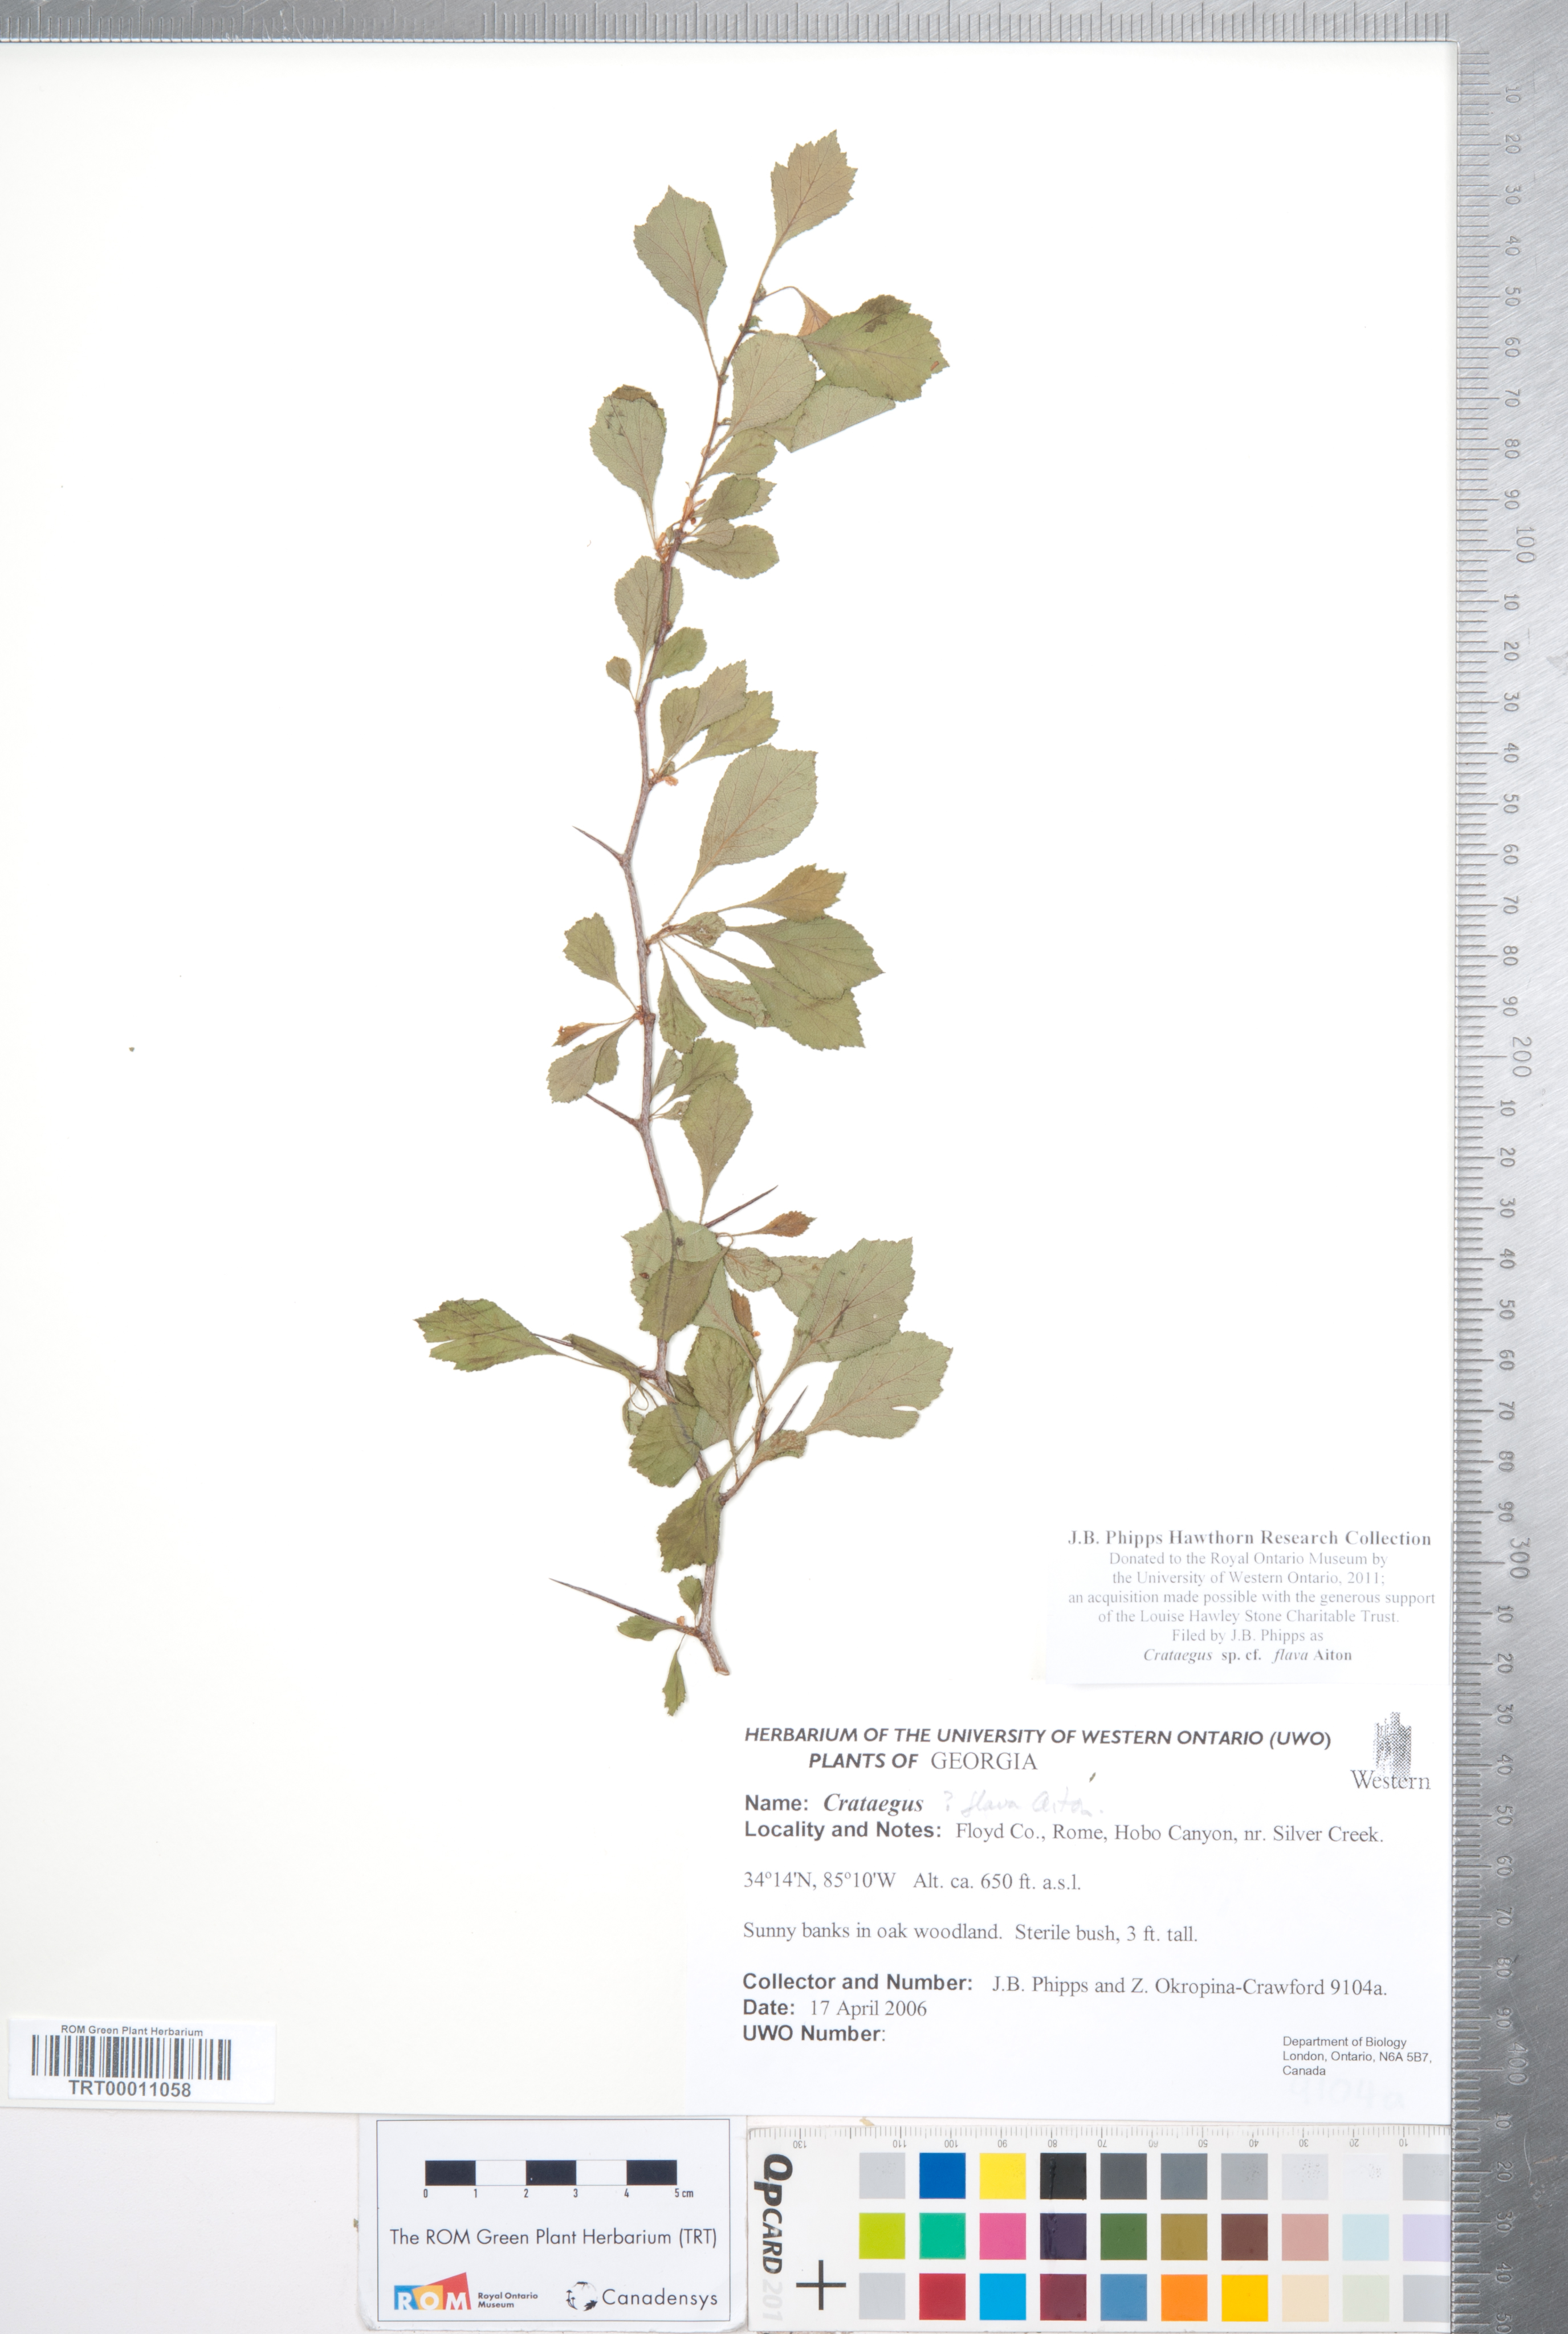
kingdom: Plantae
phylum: Tracheophyta
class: Magnoliopsida
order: Rosales
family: Rosaceae
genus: Crataegus
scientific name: Crataegus flava
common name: Yellow hawthorn
